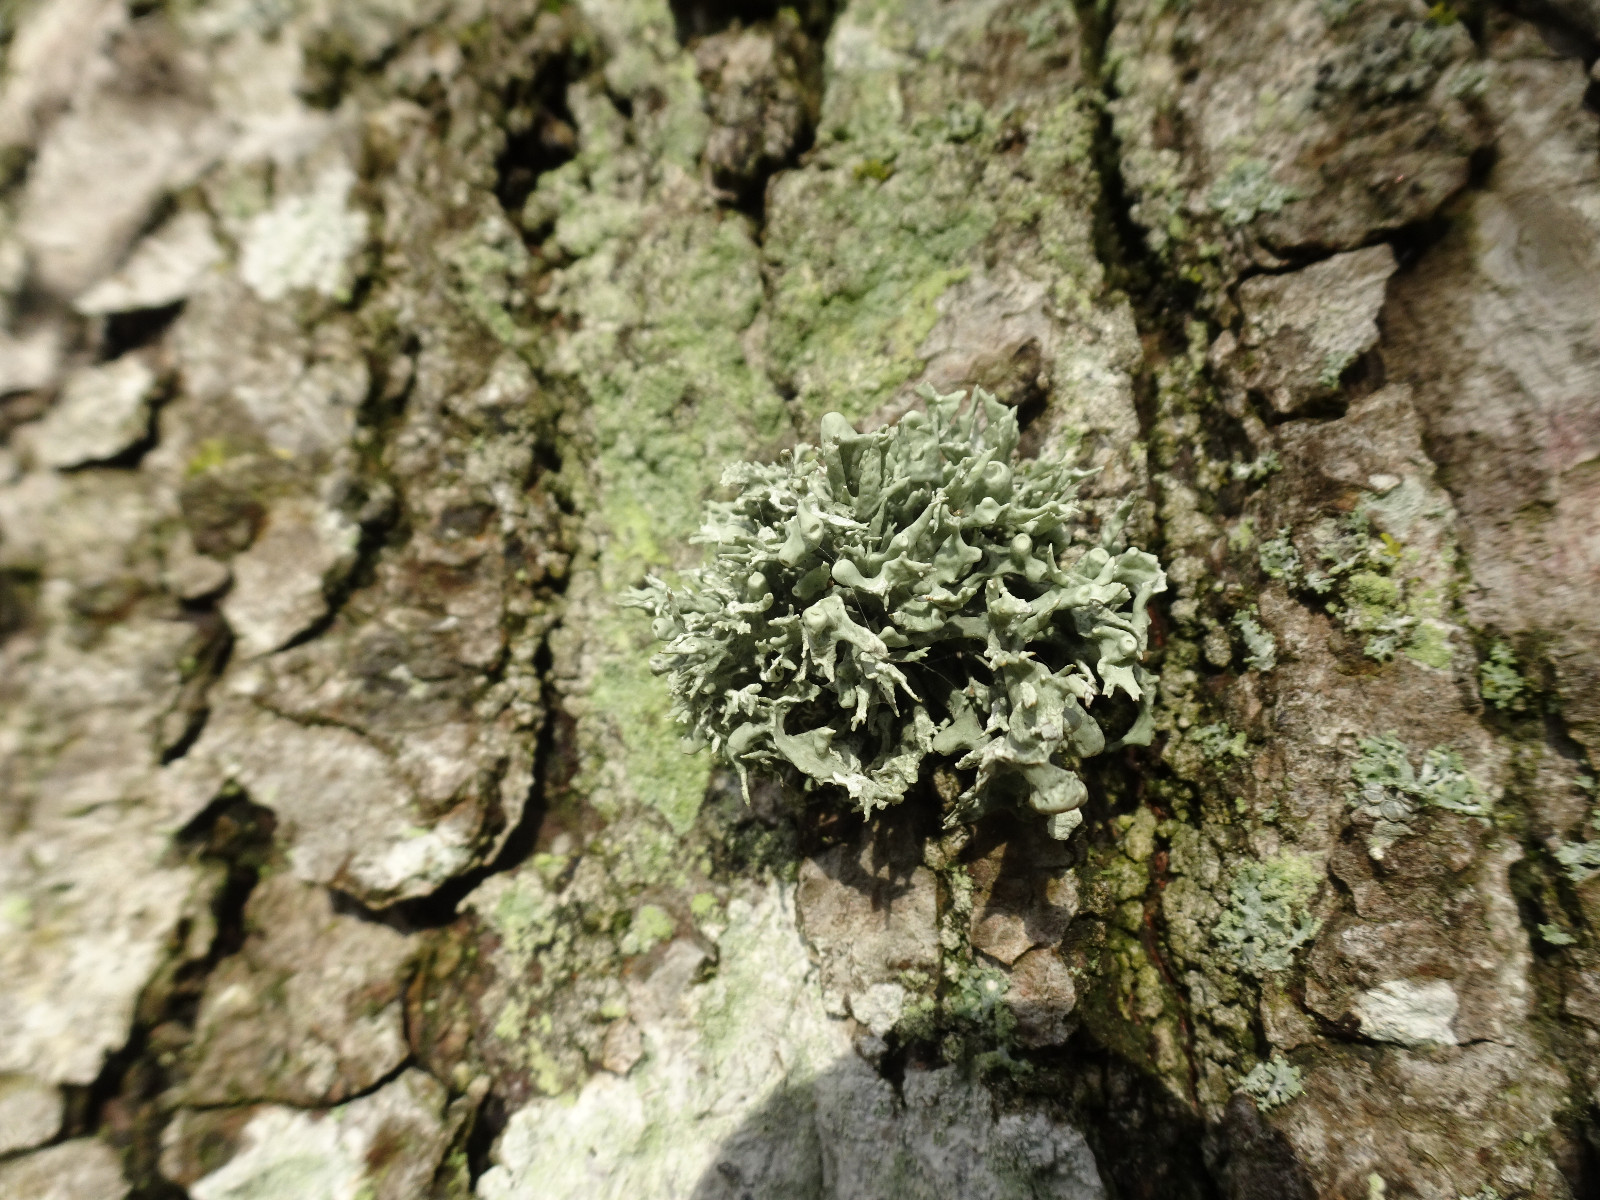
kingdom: Fungi
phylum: Ascomycota
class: Lecanoromycetes
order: Lecanorales
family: Ramalinaceae
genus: Ramalina
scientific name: Ramalina fastigiata
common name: tue-grenlav
